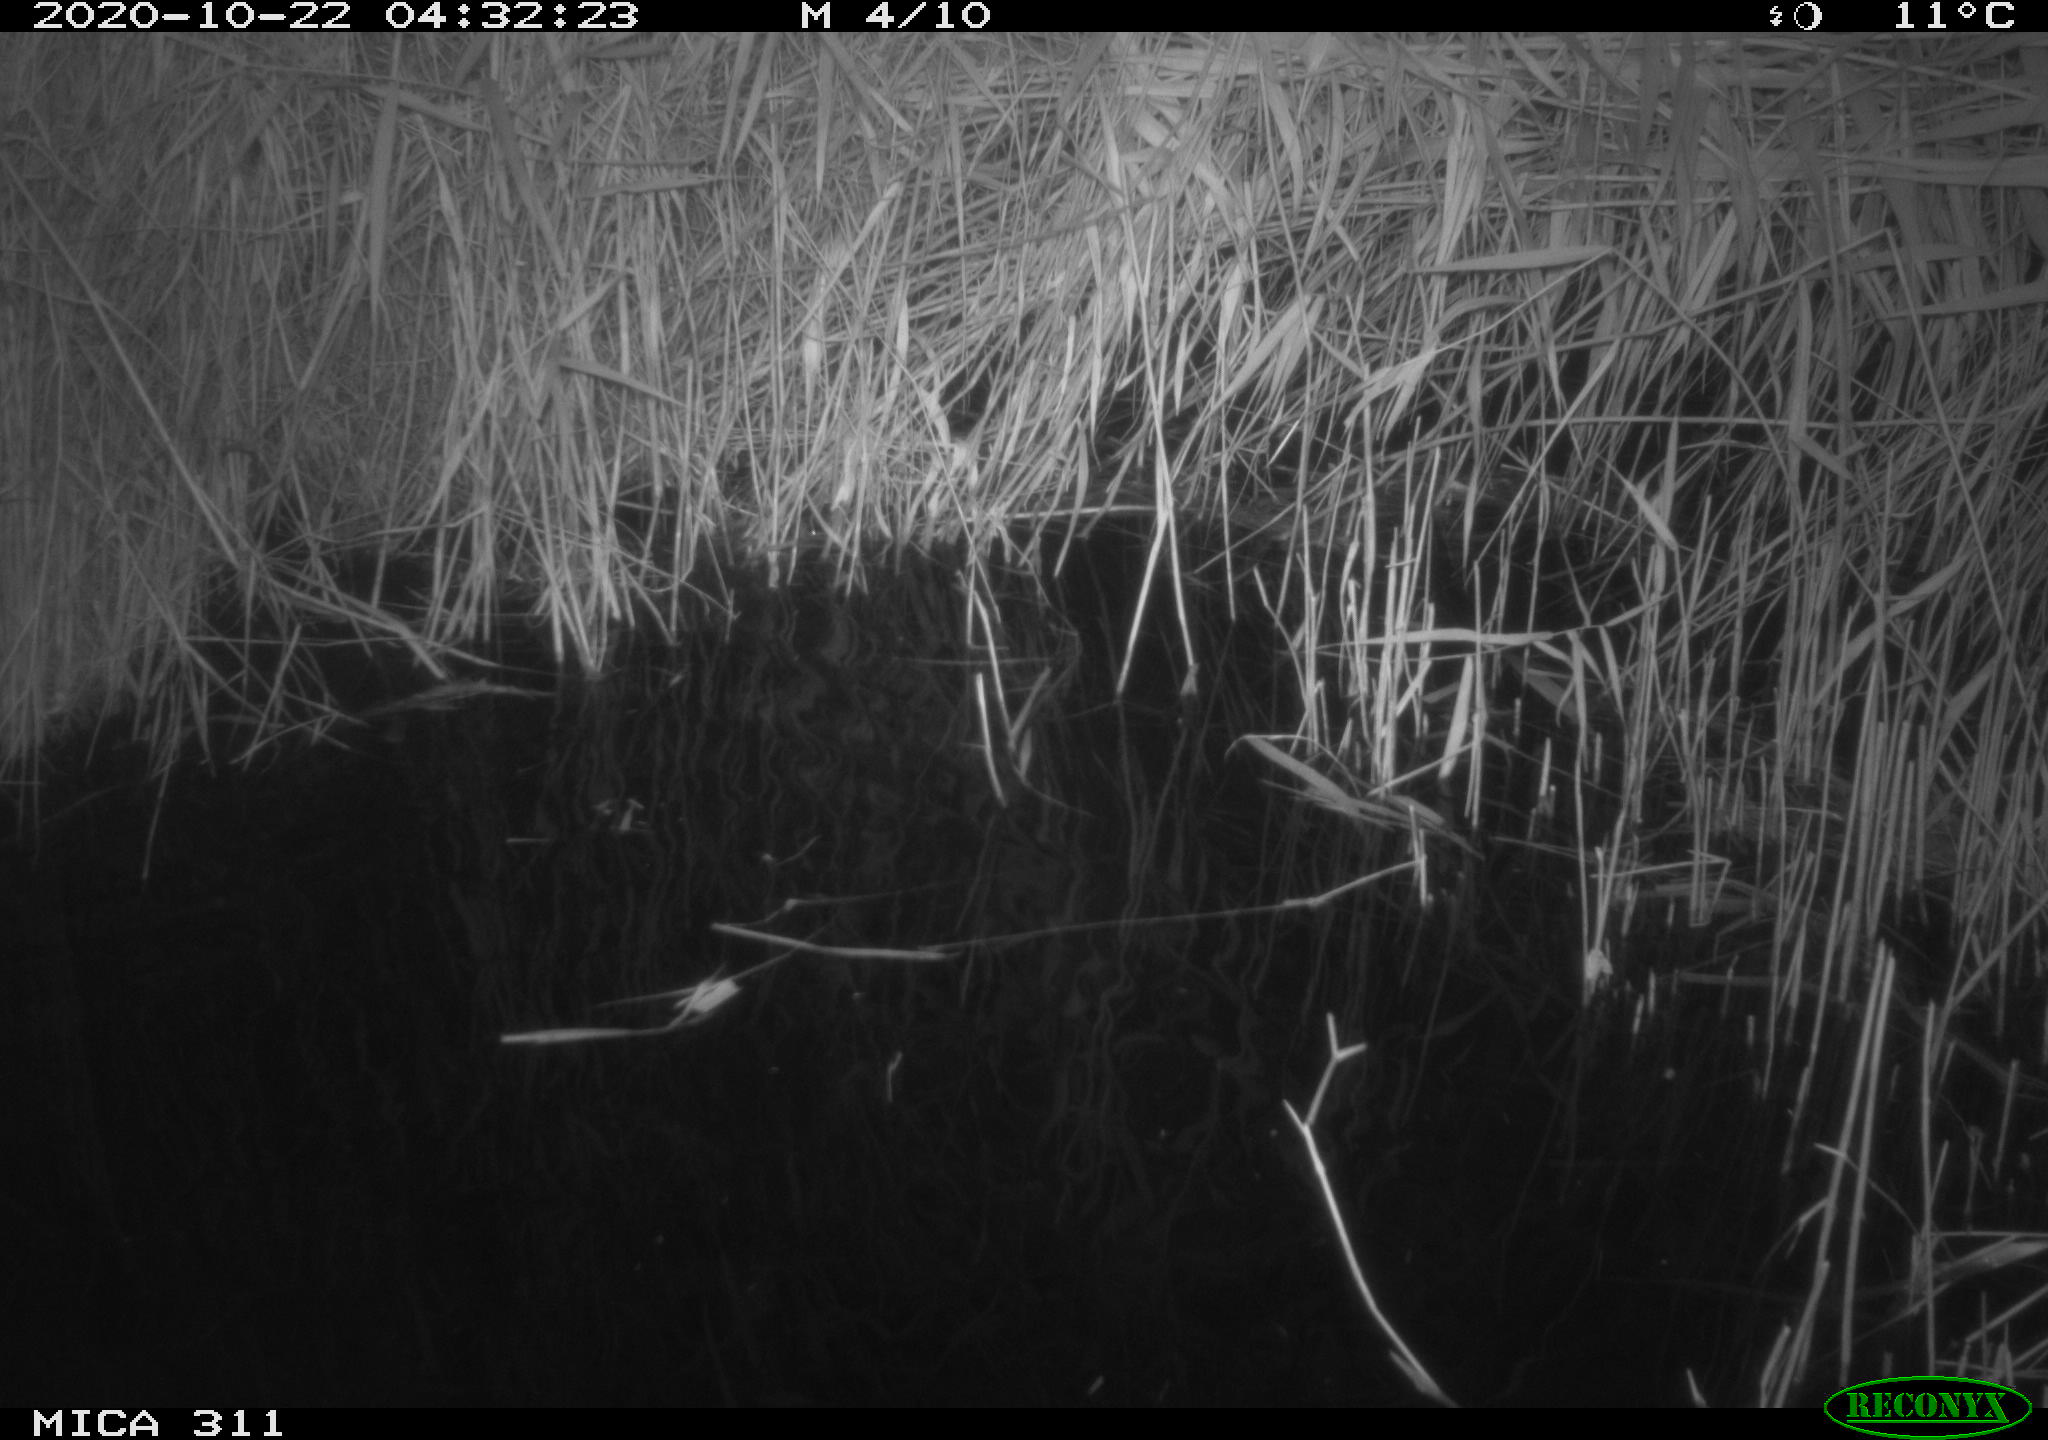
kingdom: Animalia
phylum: Chordata
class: Mammalia
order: Rodentia
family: Muridae
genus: Rattus
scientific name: Rattus norvegicus
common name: Brown rat
